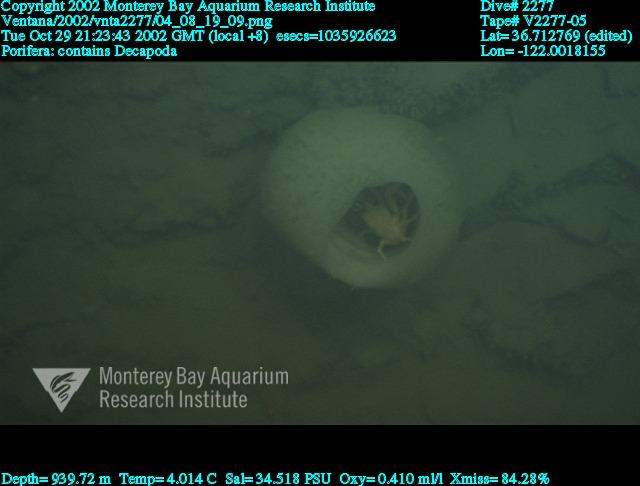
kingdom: Animalia
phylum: Porifera
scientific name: Porifera
